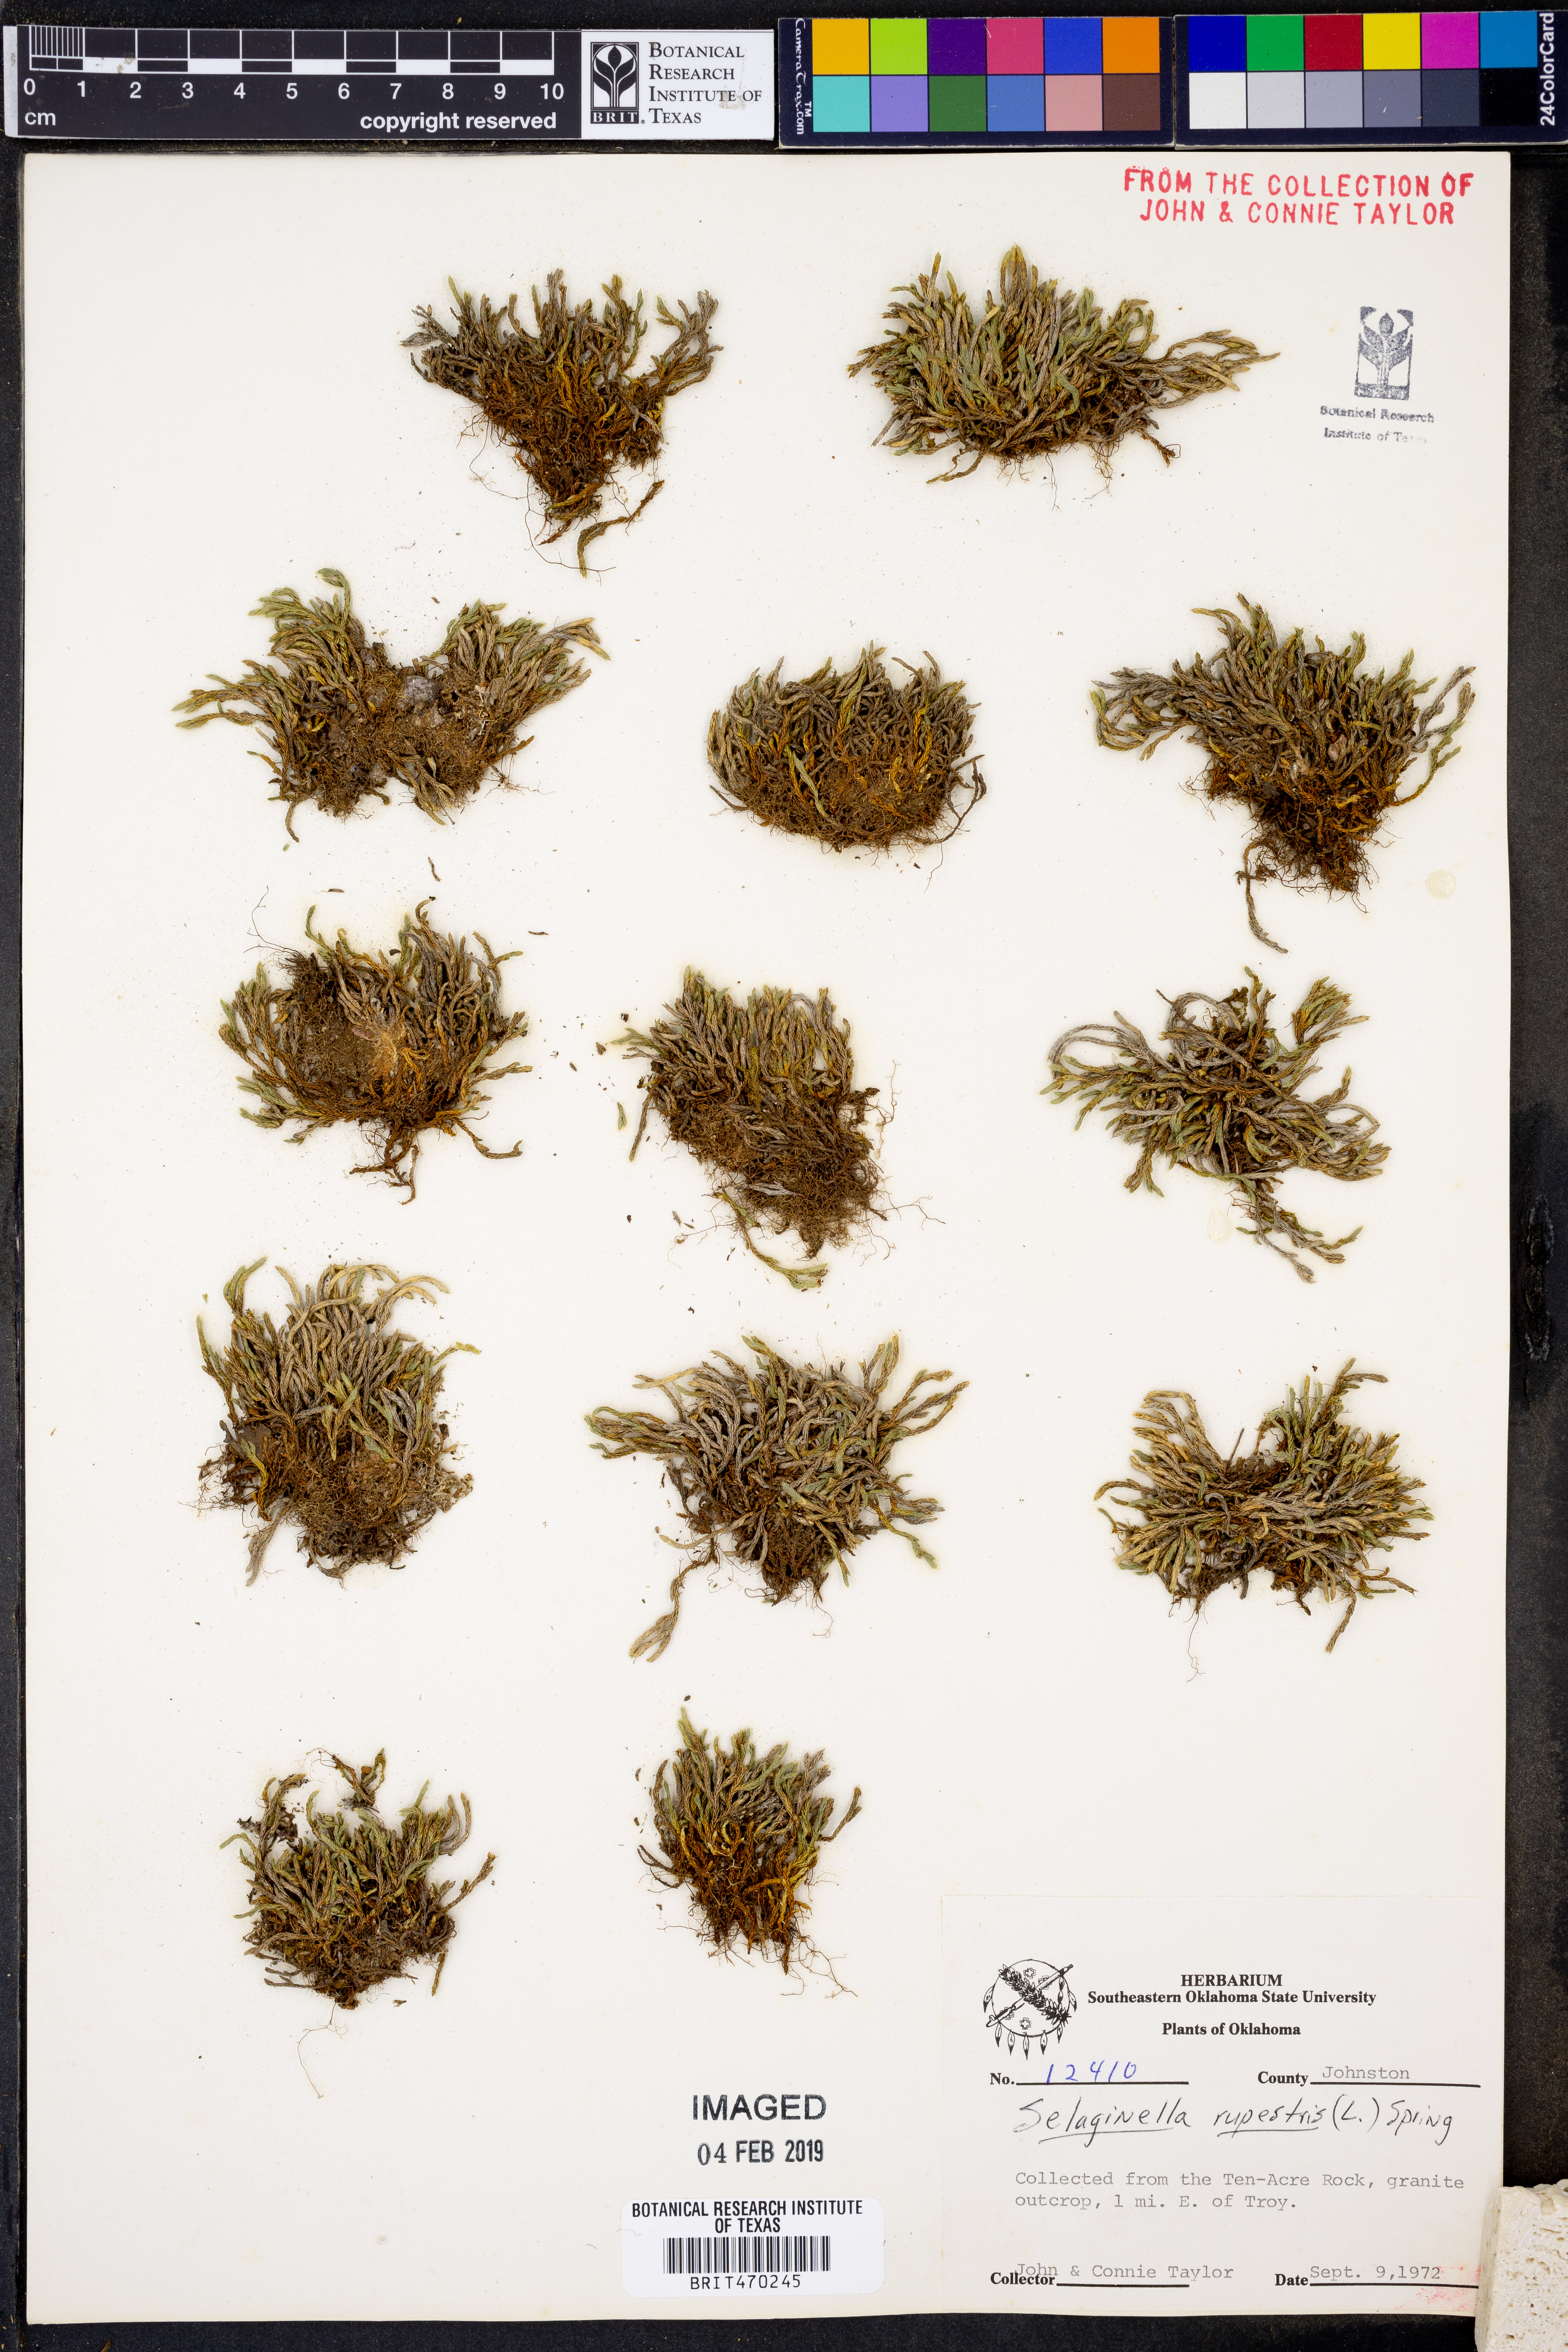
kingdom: Plantae
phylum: Tracheophyta
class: Lycopodiopsida
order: Selaginellales
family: Selaginellaceae
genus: Selaginella
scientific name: Selaginella rupestris
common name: Dwarf spikemoss
